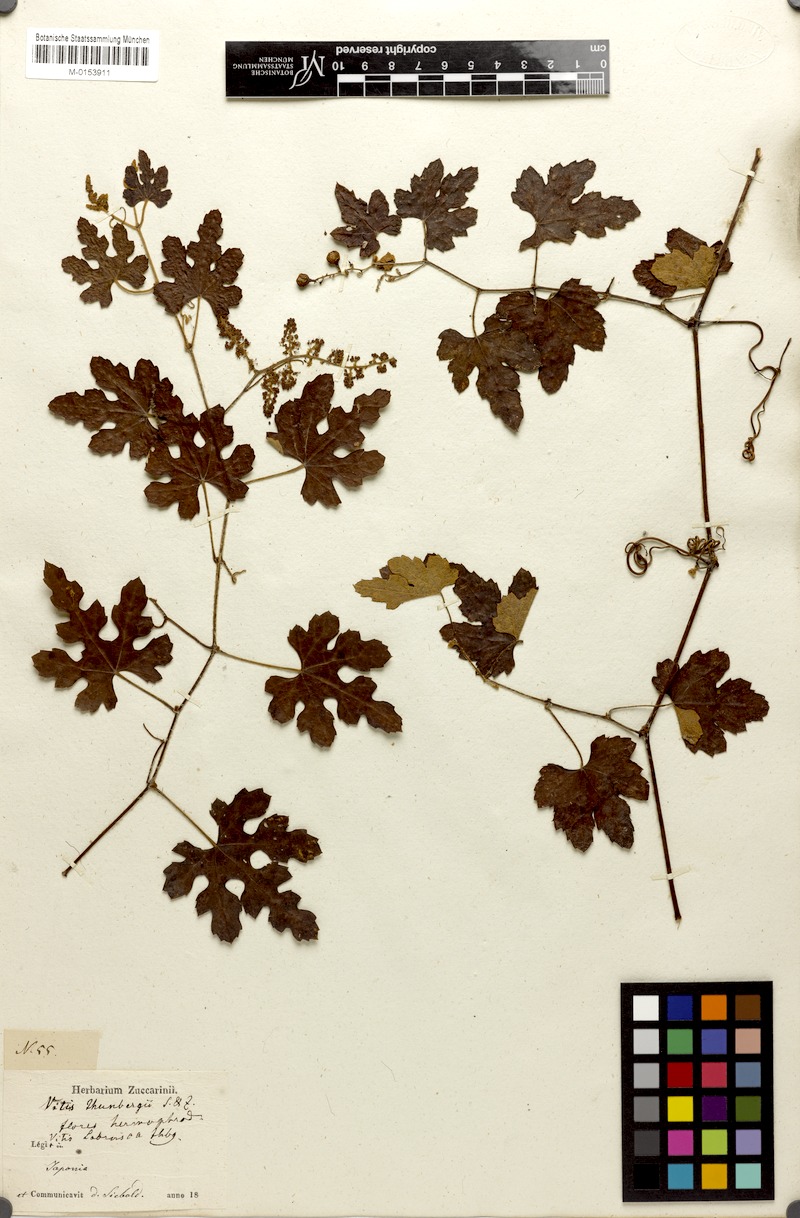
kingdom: Plantae
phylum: Tracheophyta
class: Magnoliopsida
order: Vitales
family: Vitaceae
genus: Vitis
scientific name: Vitis ficifolia
